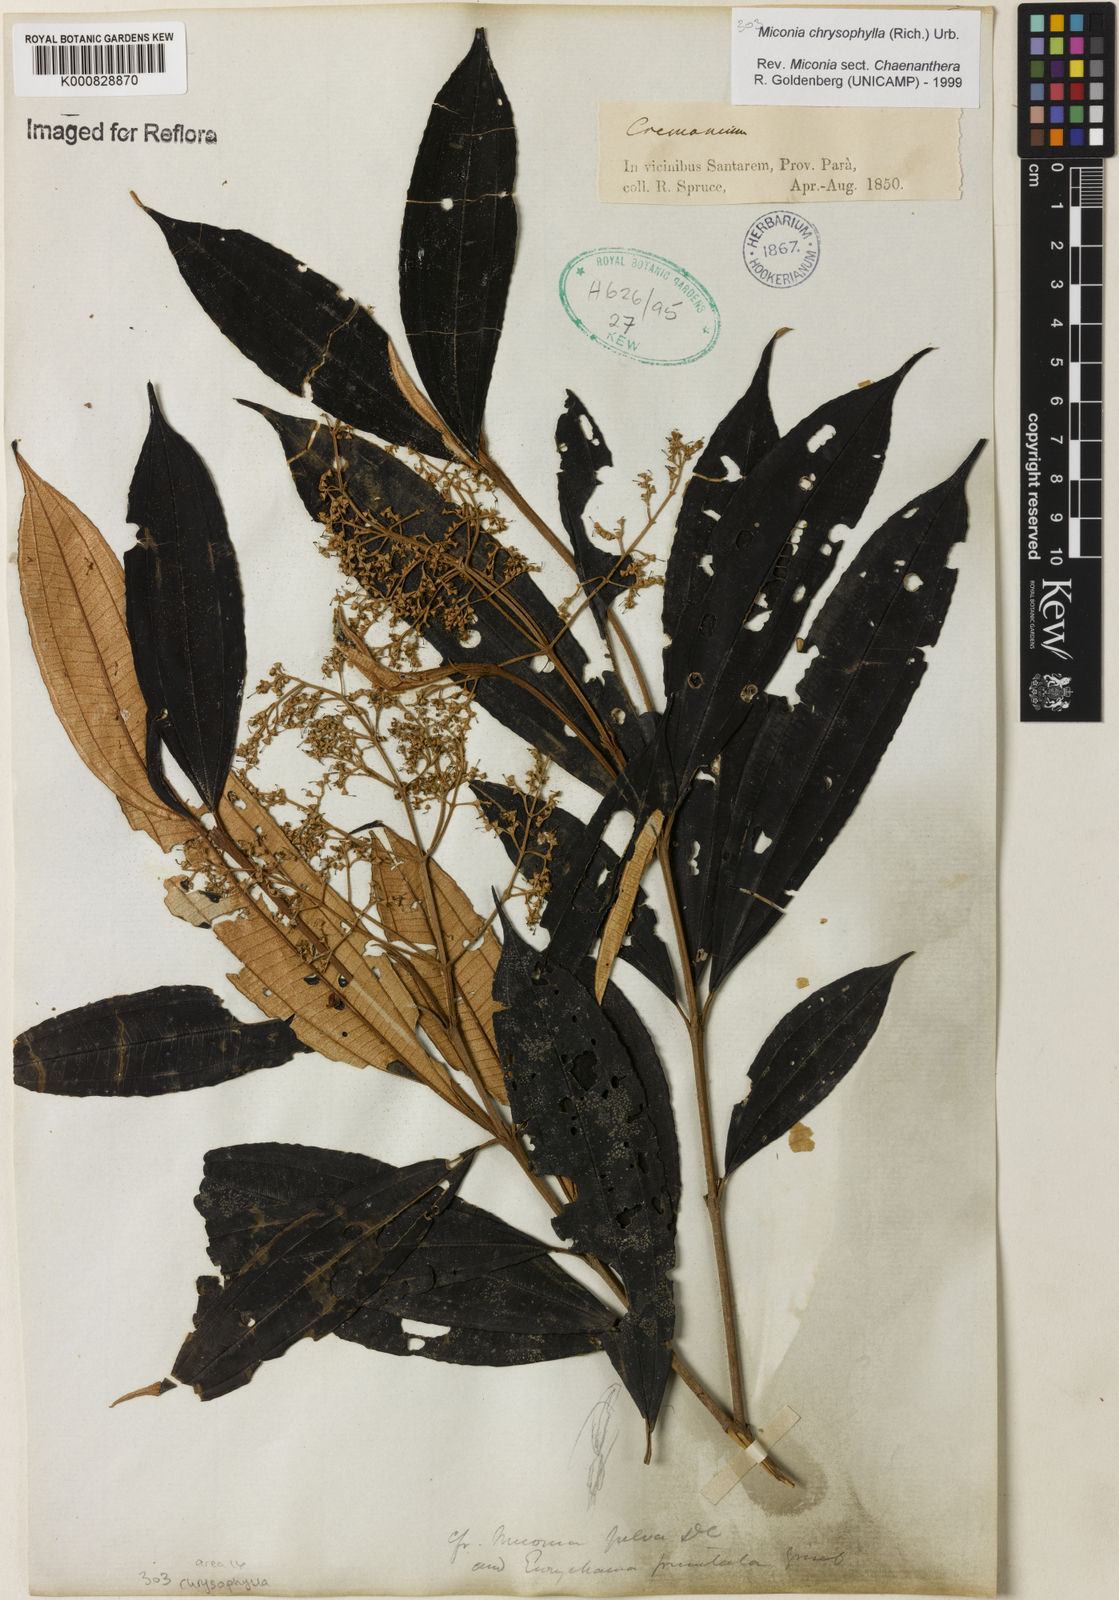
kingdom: Plantae
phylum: Tracheophyta
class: Magnoliopsida
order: Myrtales
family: Melastomataceae
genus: Miconia
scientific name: Miconia chrysophylla
